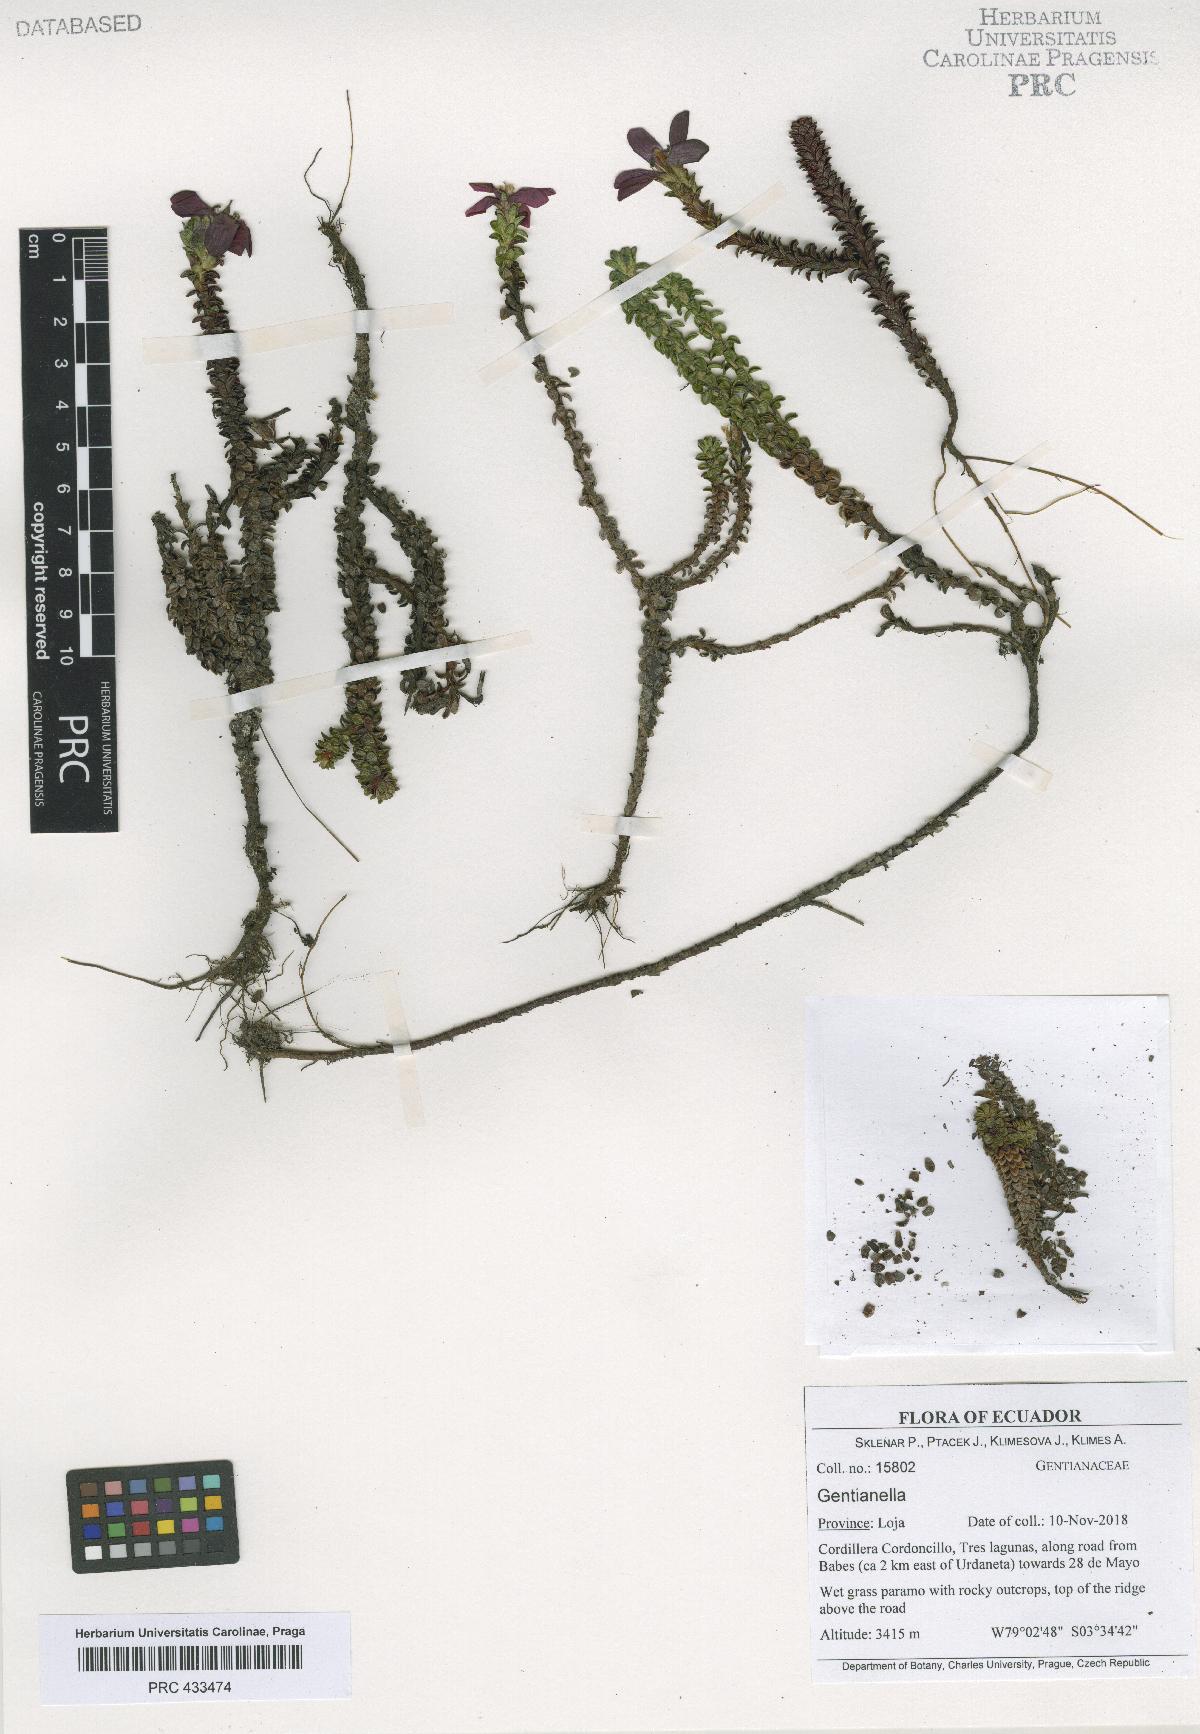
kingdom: Plantae
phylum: Tracheophyta
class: Magnoliopsida
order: Gentianales
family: Gentianaceae
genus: Gentianella
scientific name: Gentianella
